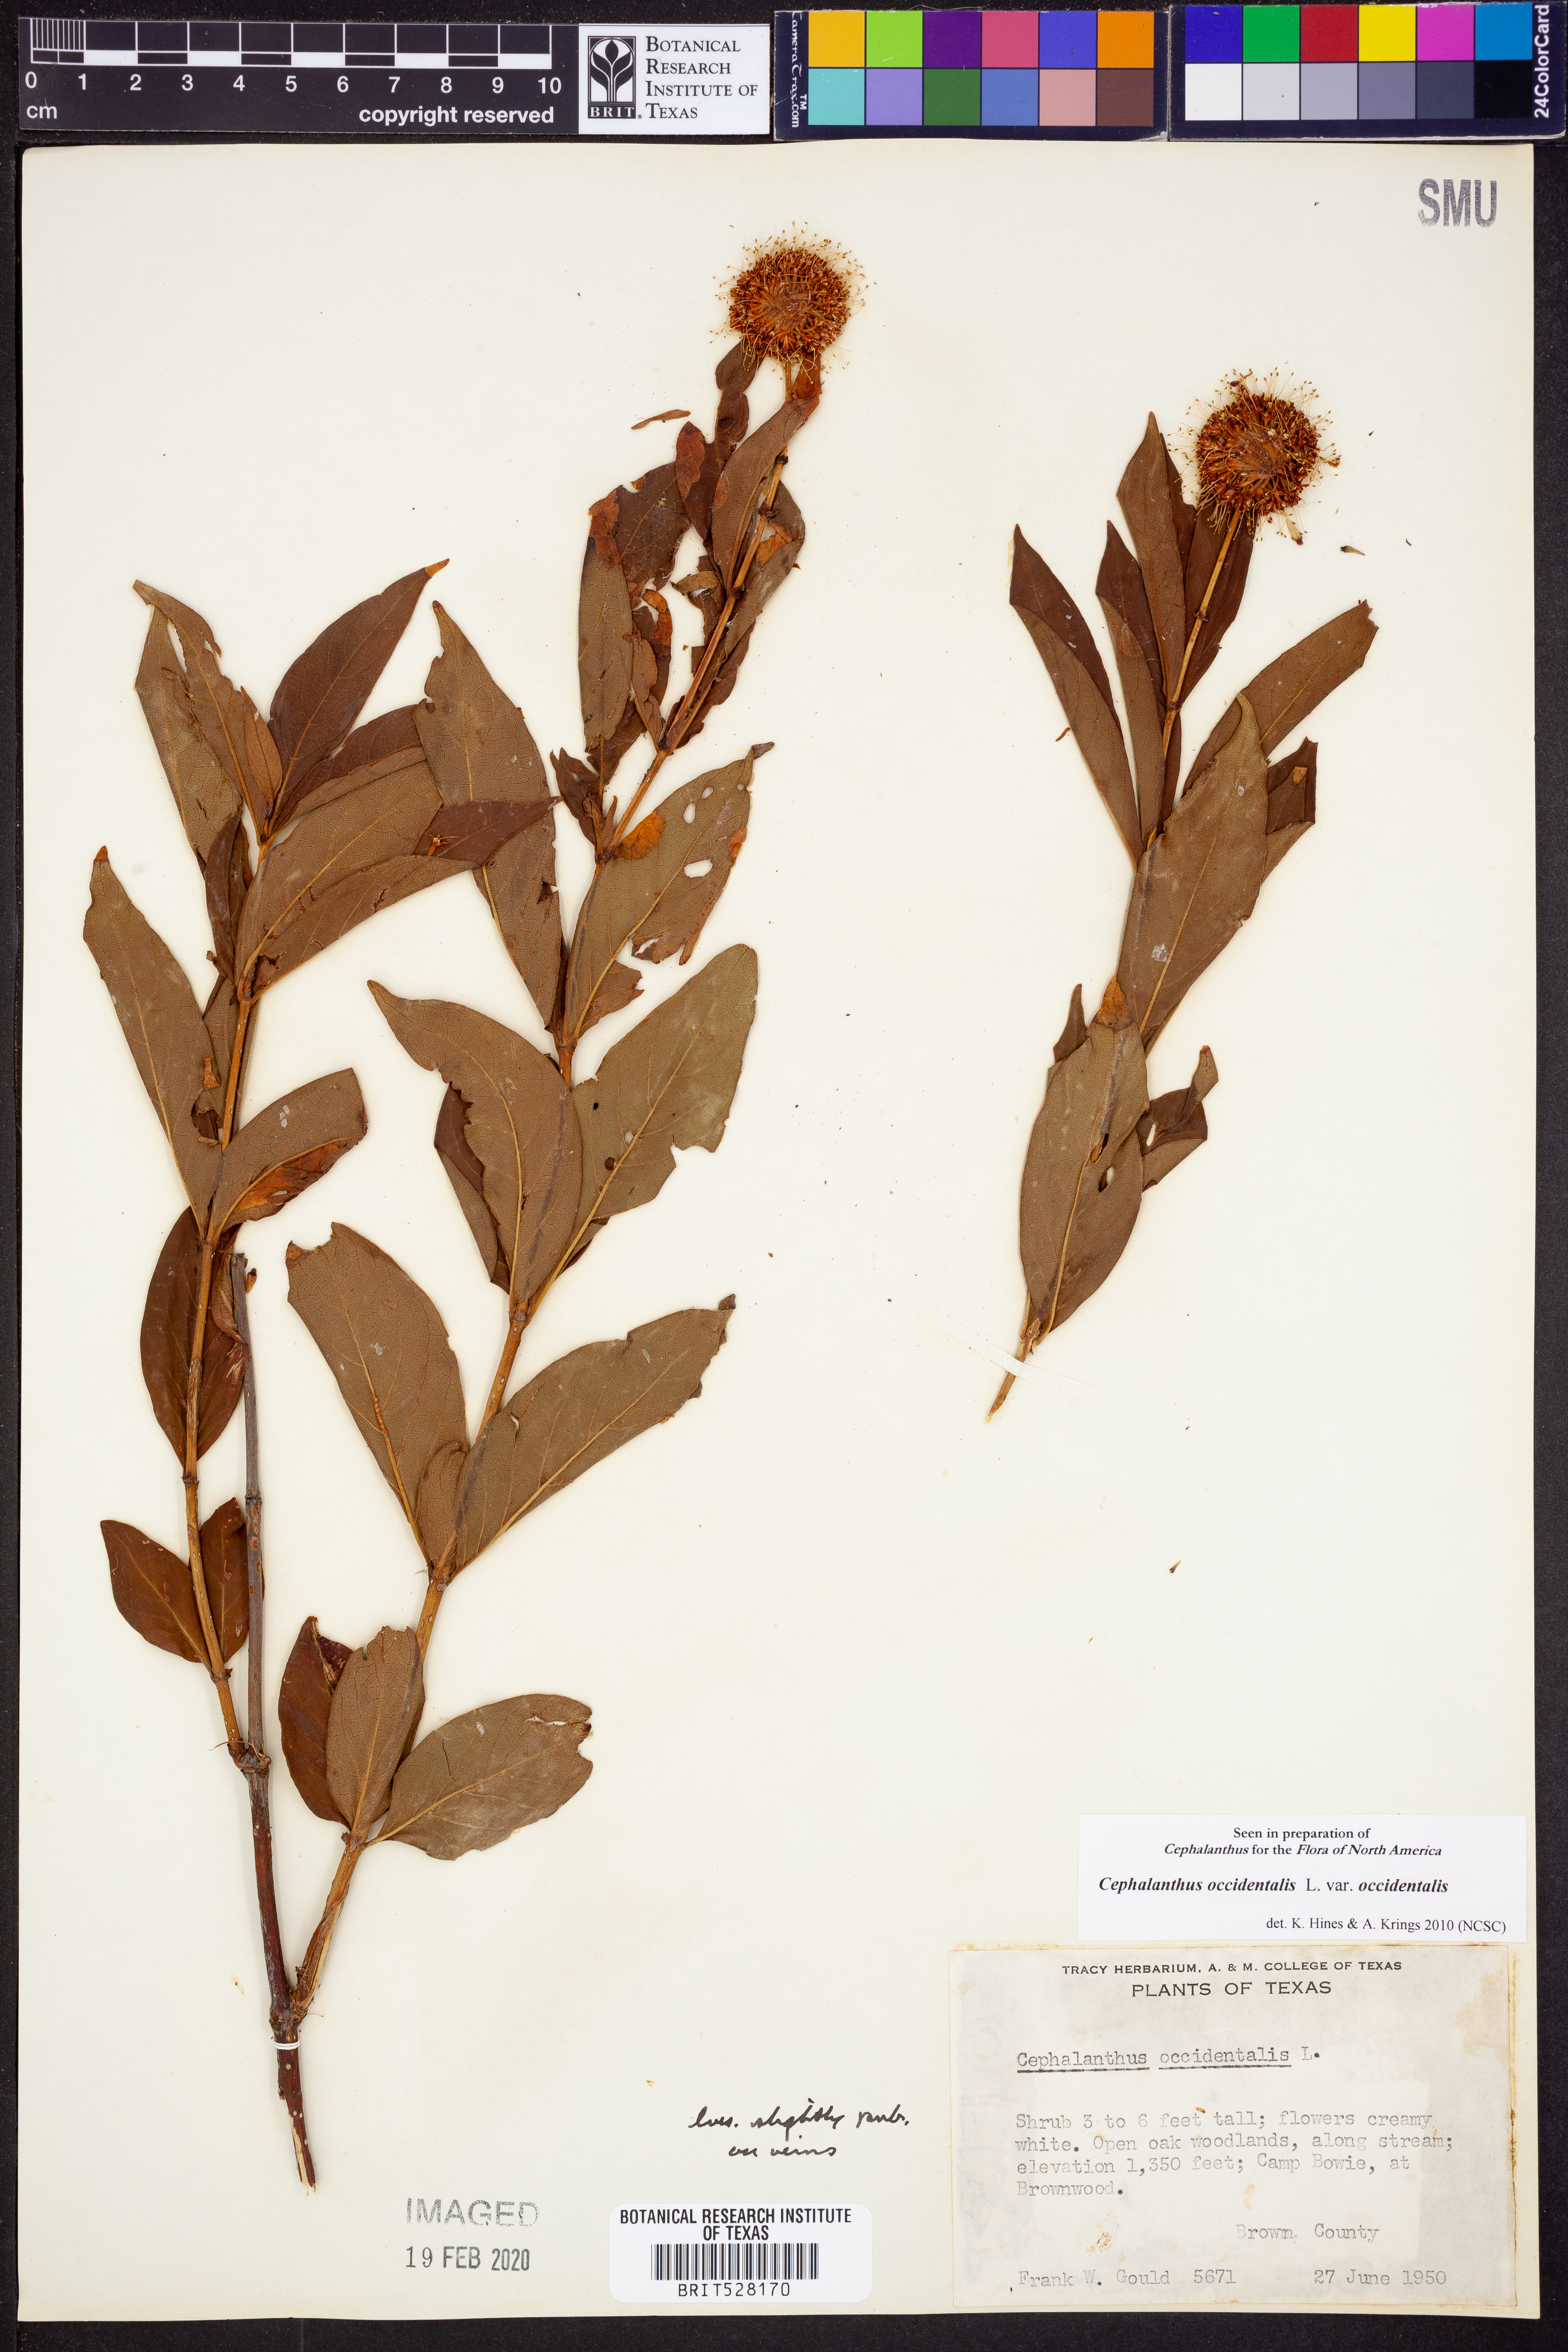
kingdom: Plantae
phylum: Tracheophyta
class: Magnoliopsida
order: Gentianales
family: Rubiaceae
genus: Cephalanthus
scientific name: Cephalanthus occidentalis
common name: Button-willow
